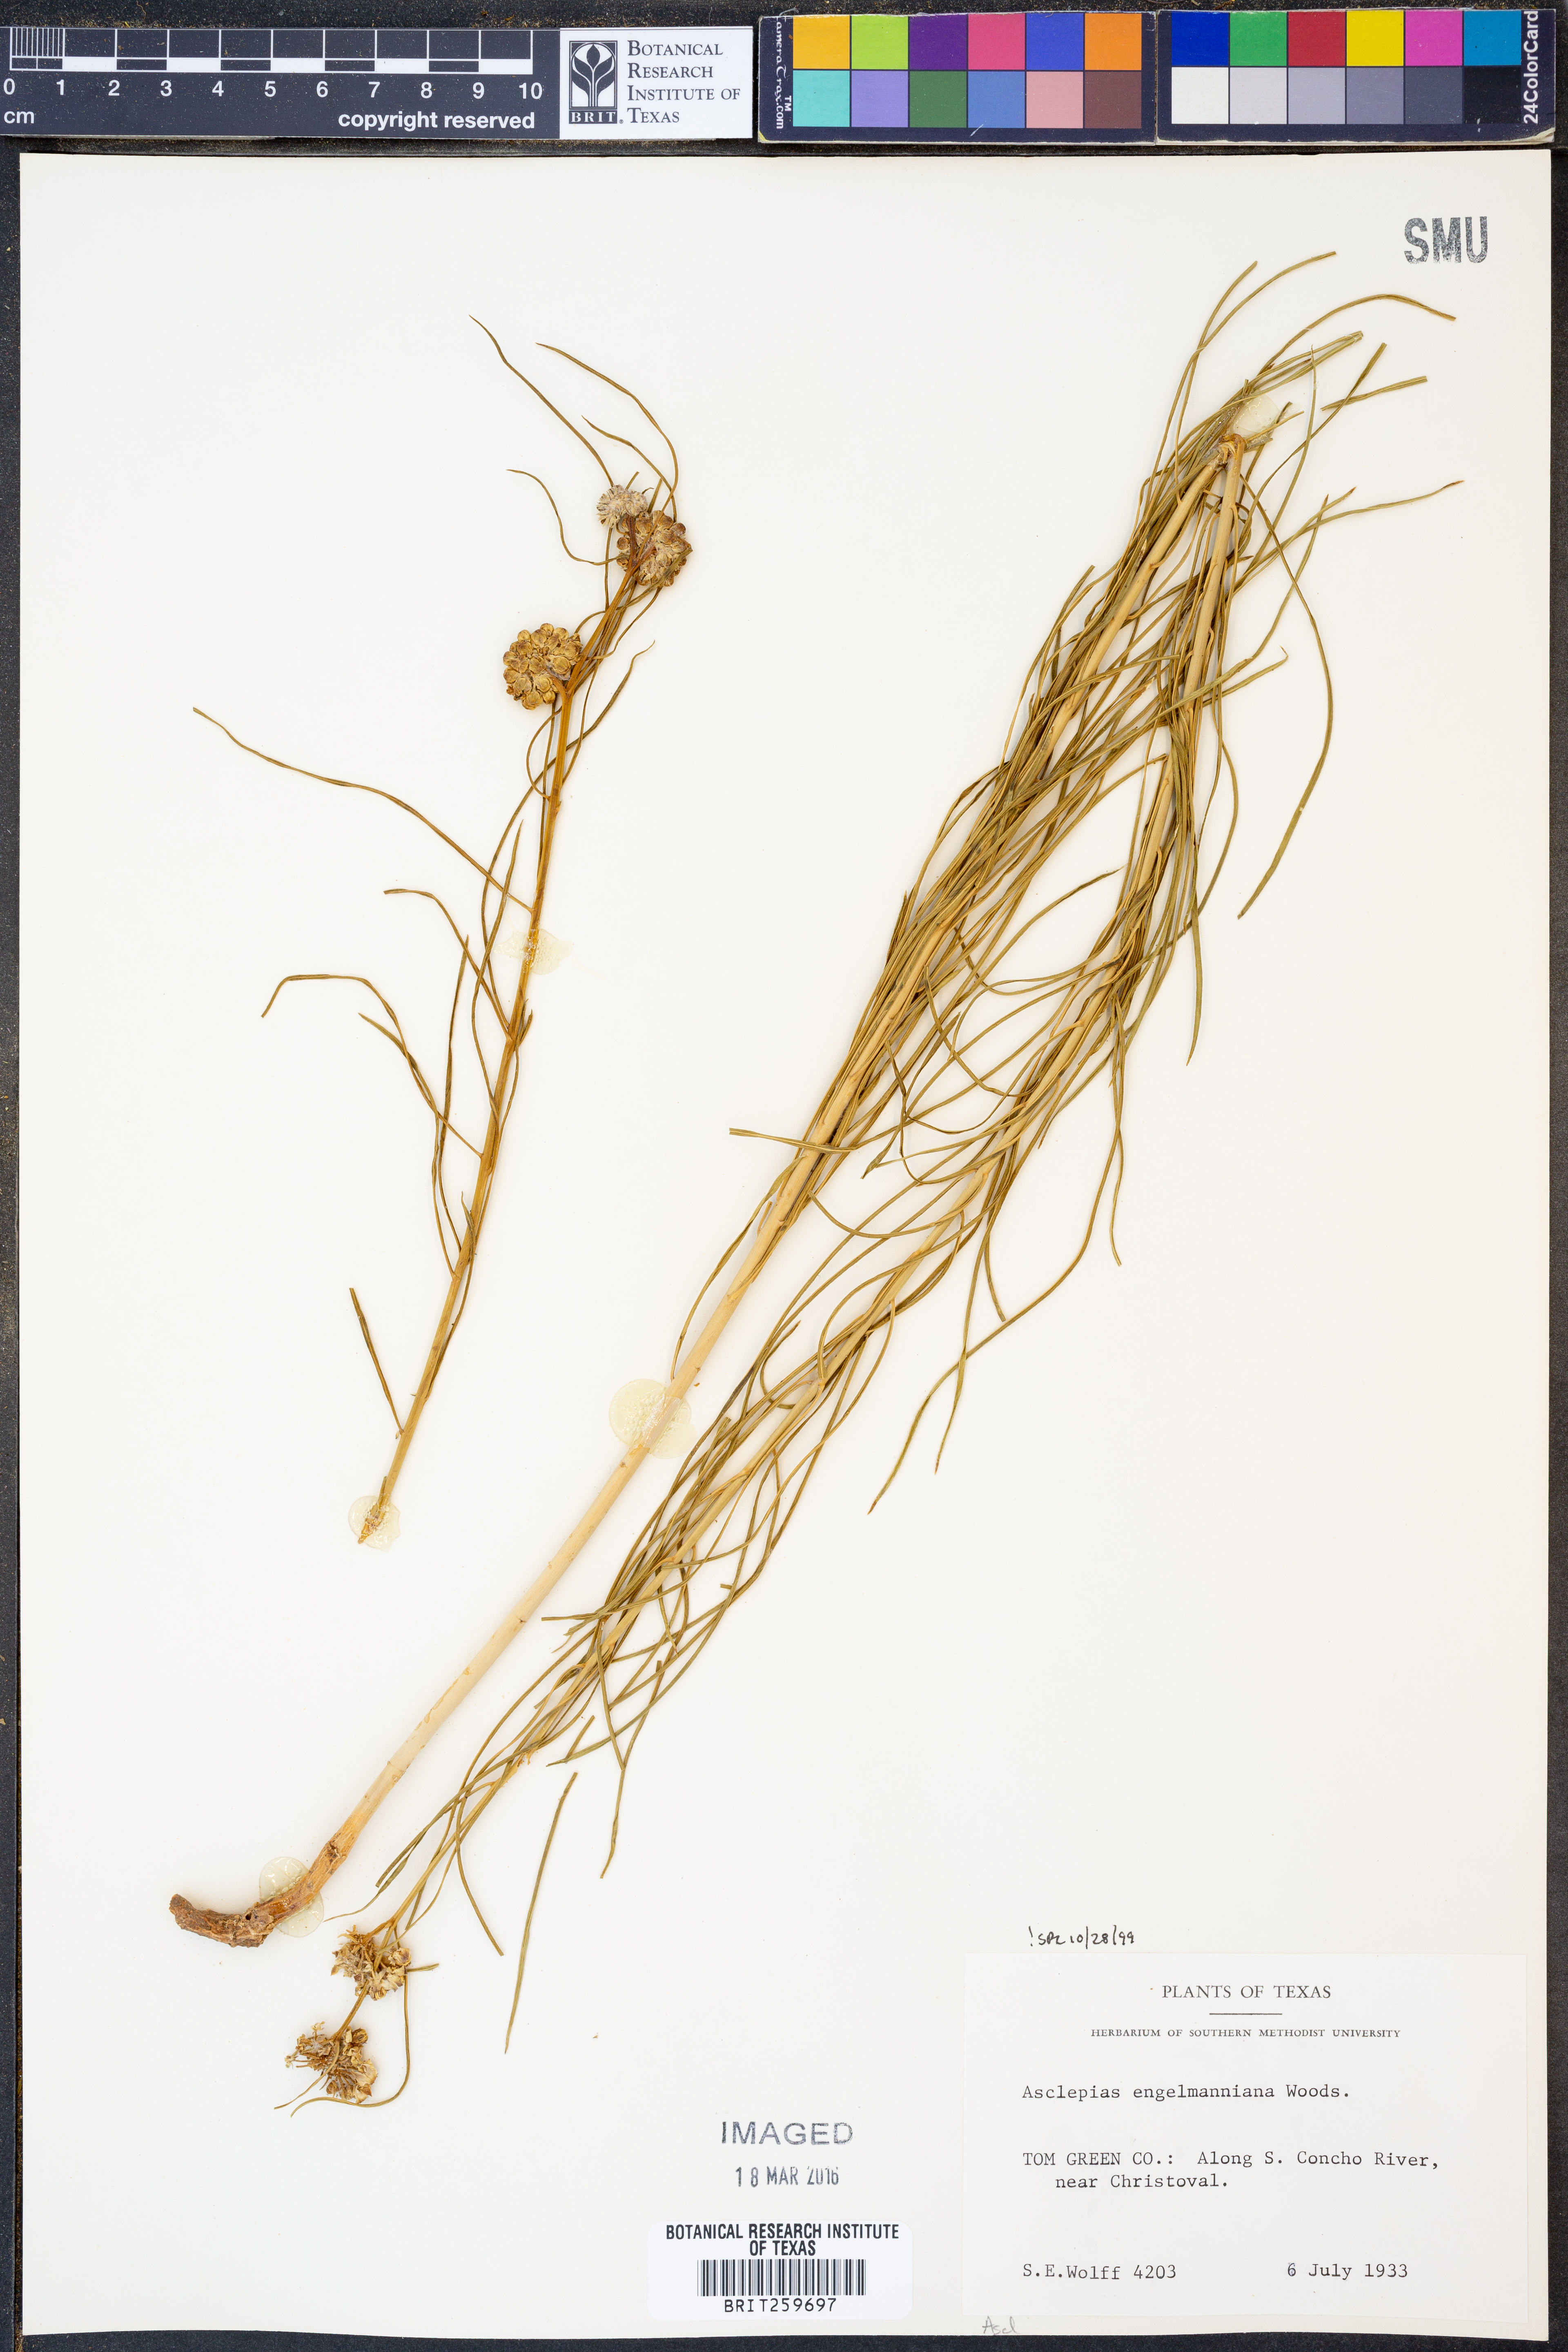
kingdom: Plantae
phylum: Tracheophyta
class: Magnoliopsida
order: Gentianales
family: Apocynaceae
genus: Asclepias
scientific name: Asclepias engelmanniana
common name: Engelmann's milkweed
